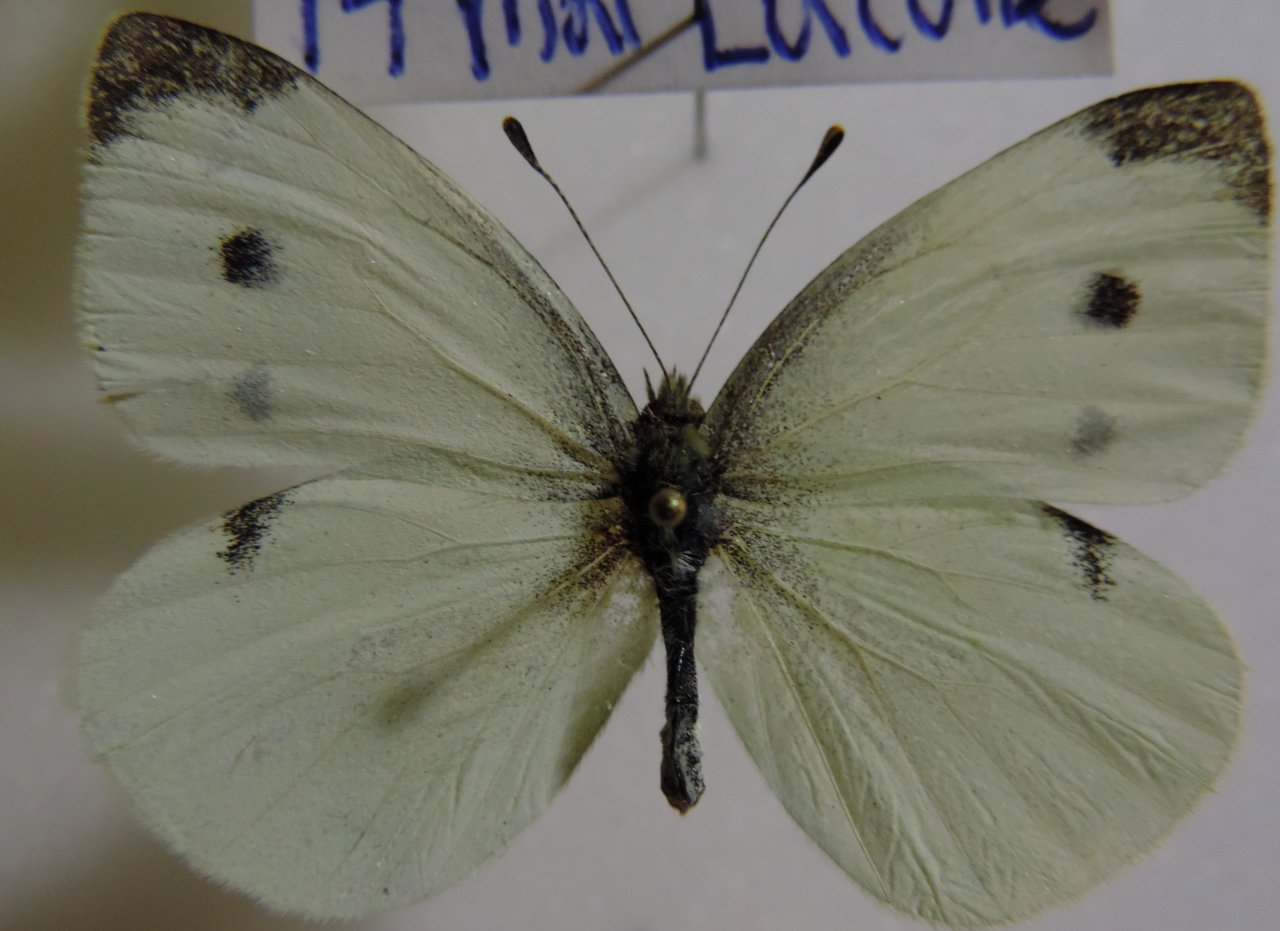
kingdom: Animalia
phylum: Arthropoda
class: Insecta
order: Lepidoptera
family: Pieridae
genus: Pieris
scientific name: Pieris rapae
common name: Cabbage White
